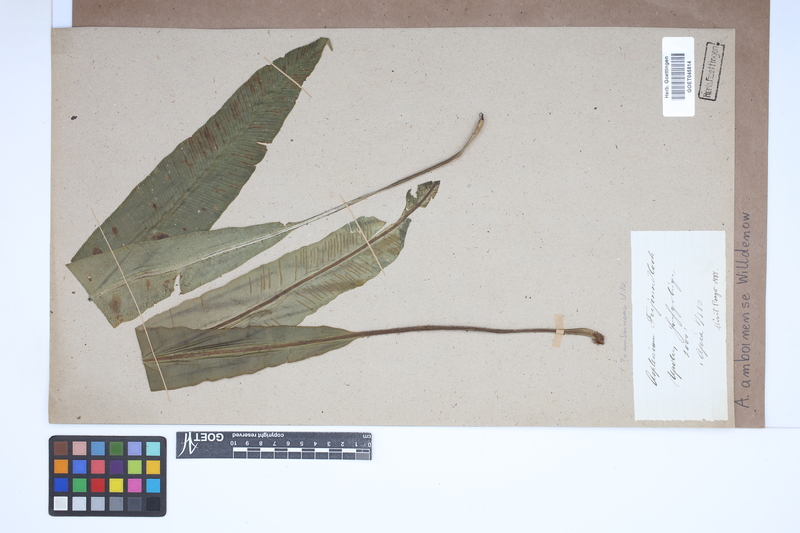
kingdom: Plantae
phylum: Tracheophyta
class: Polypodiopsida
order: Polypodiales
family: Aspleniaceae
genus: Asplenium
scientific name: Asplenium amboinense
